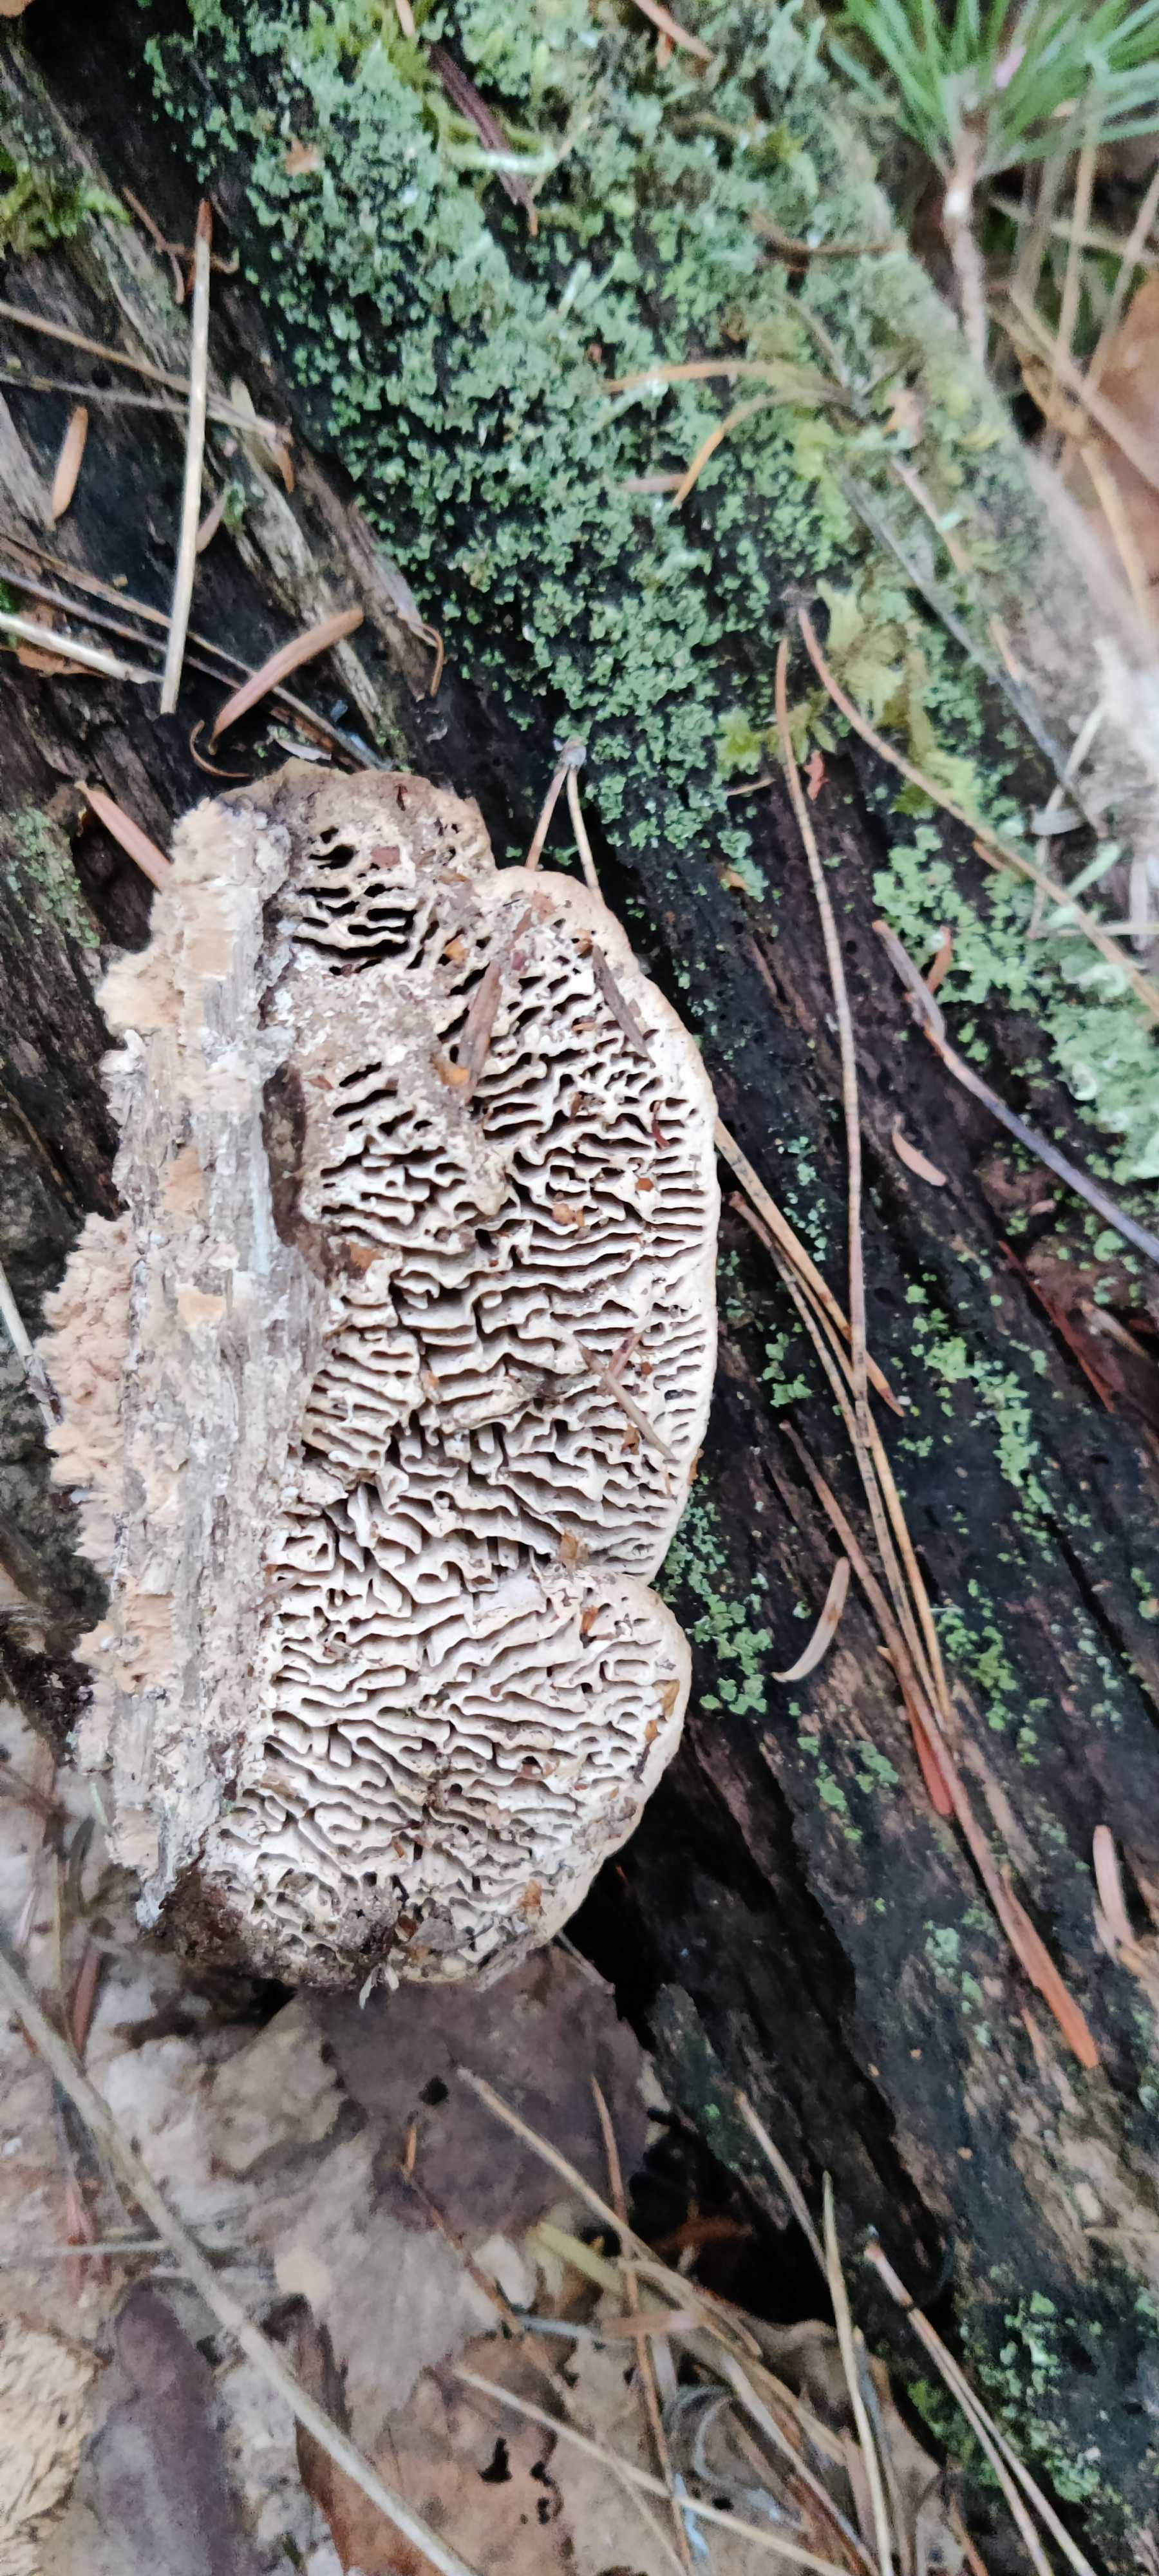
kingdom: Fungi
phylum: Basidiomycota
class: Agaricomycetes
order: Polyporales
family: Fomitopsidaceae
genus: Daedalea
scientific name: Daedalea quercina
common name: ege-labyrintsvamp
